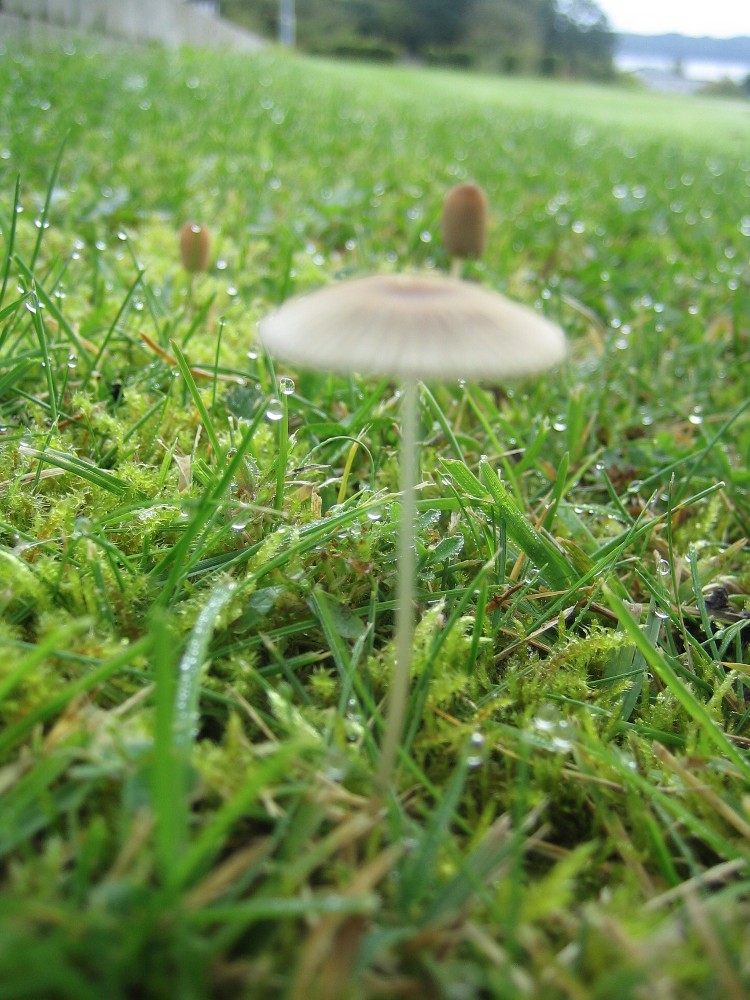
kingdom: Fungi
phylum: Basidiomycota
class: Agaricomycetes
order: Agaricales
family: Psathyrellaceae
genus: Parasola
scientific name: Parasola
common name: hjulhat
